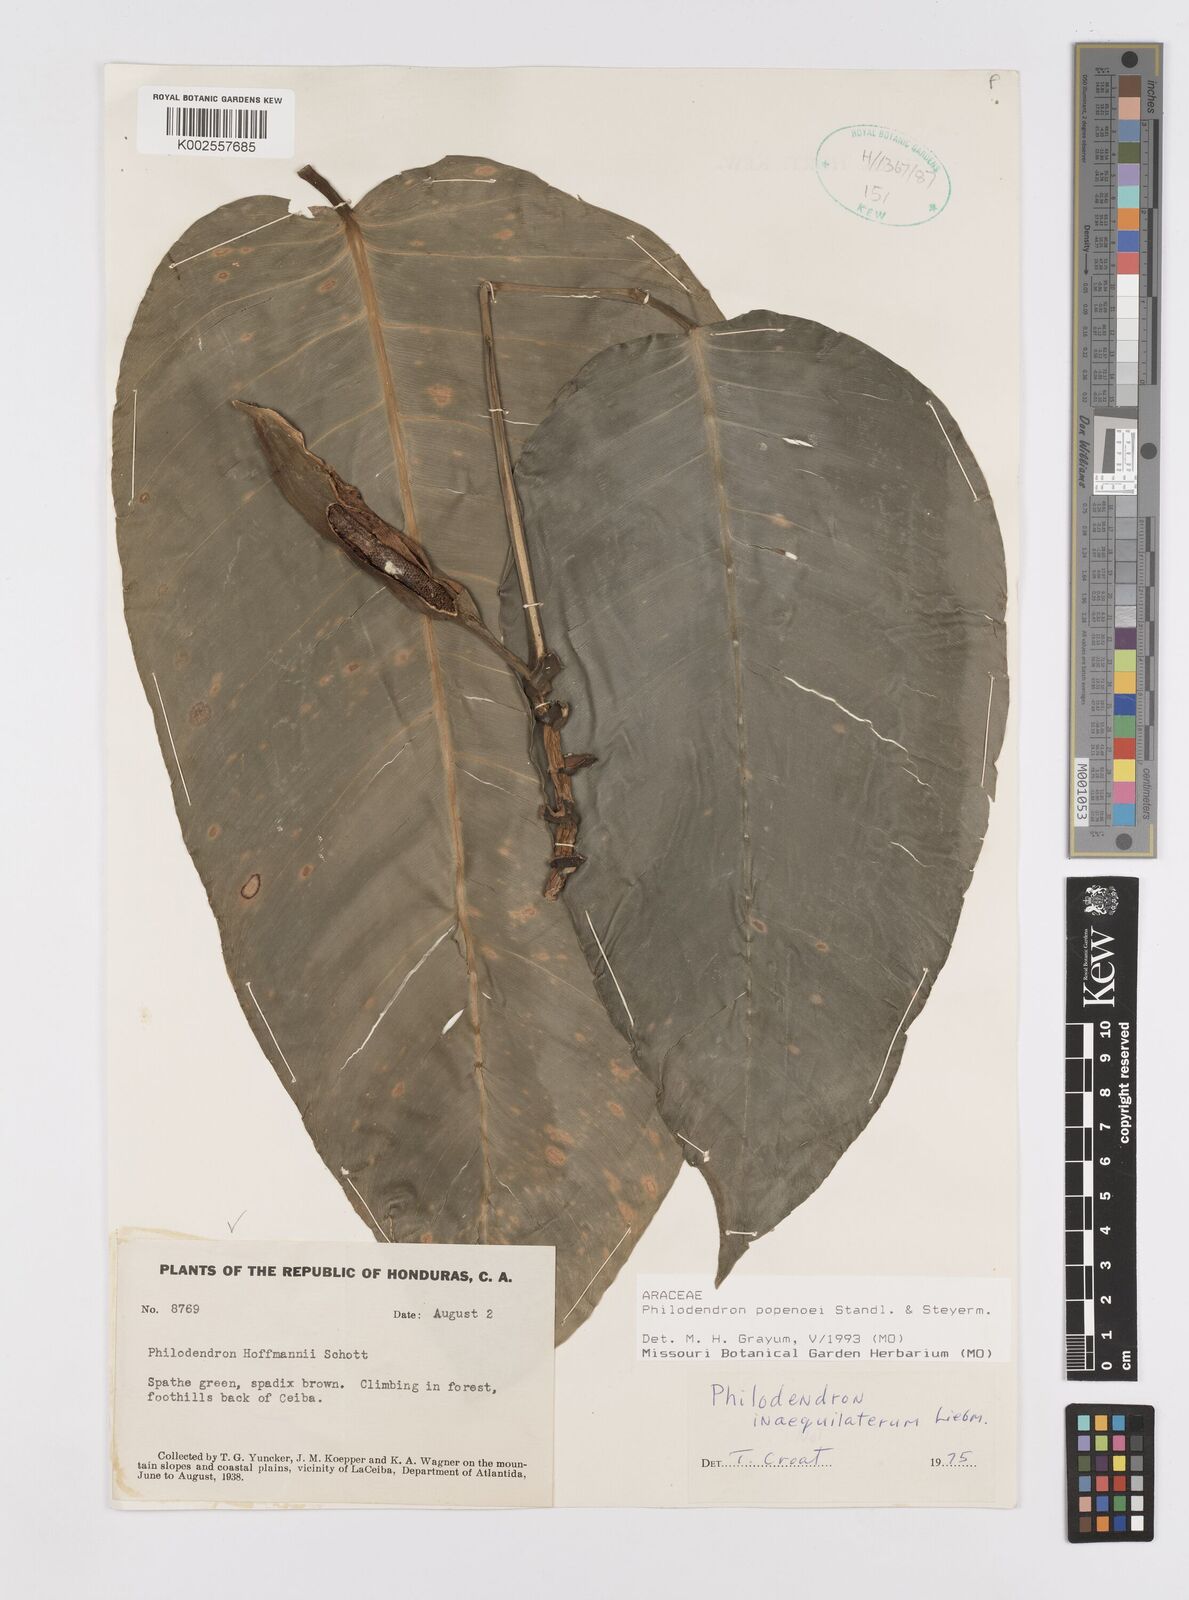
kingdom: Plantae
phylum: Tracheophyta
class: Liliopsida
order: Alismatales
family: Araceae
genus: Philodendron
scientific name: Philodendron popenoei
